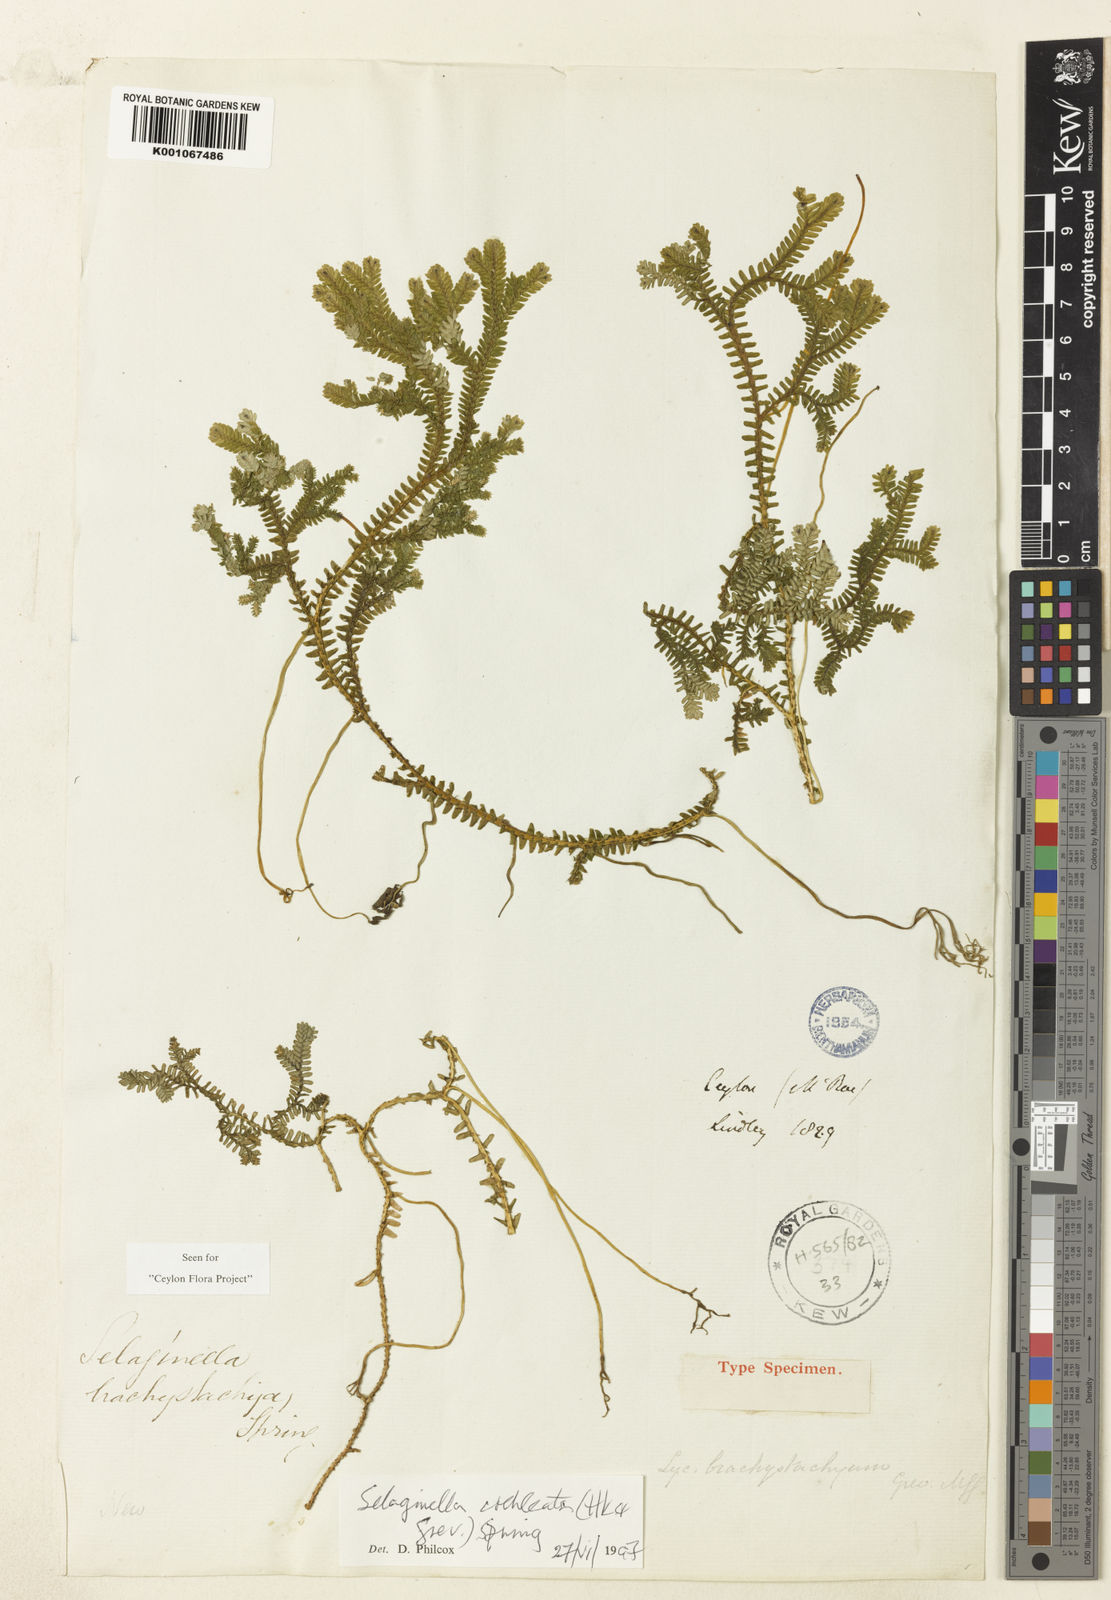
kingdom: Plantae
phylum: Tracheophyta
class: Lycopodiopsida
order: Selaginellales
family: Selaginellaceae
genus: Selaginella
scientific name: Selaginella
